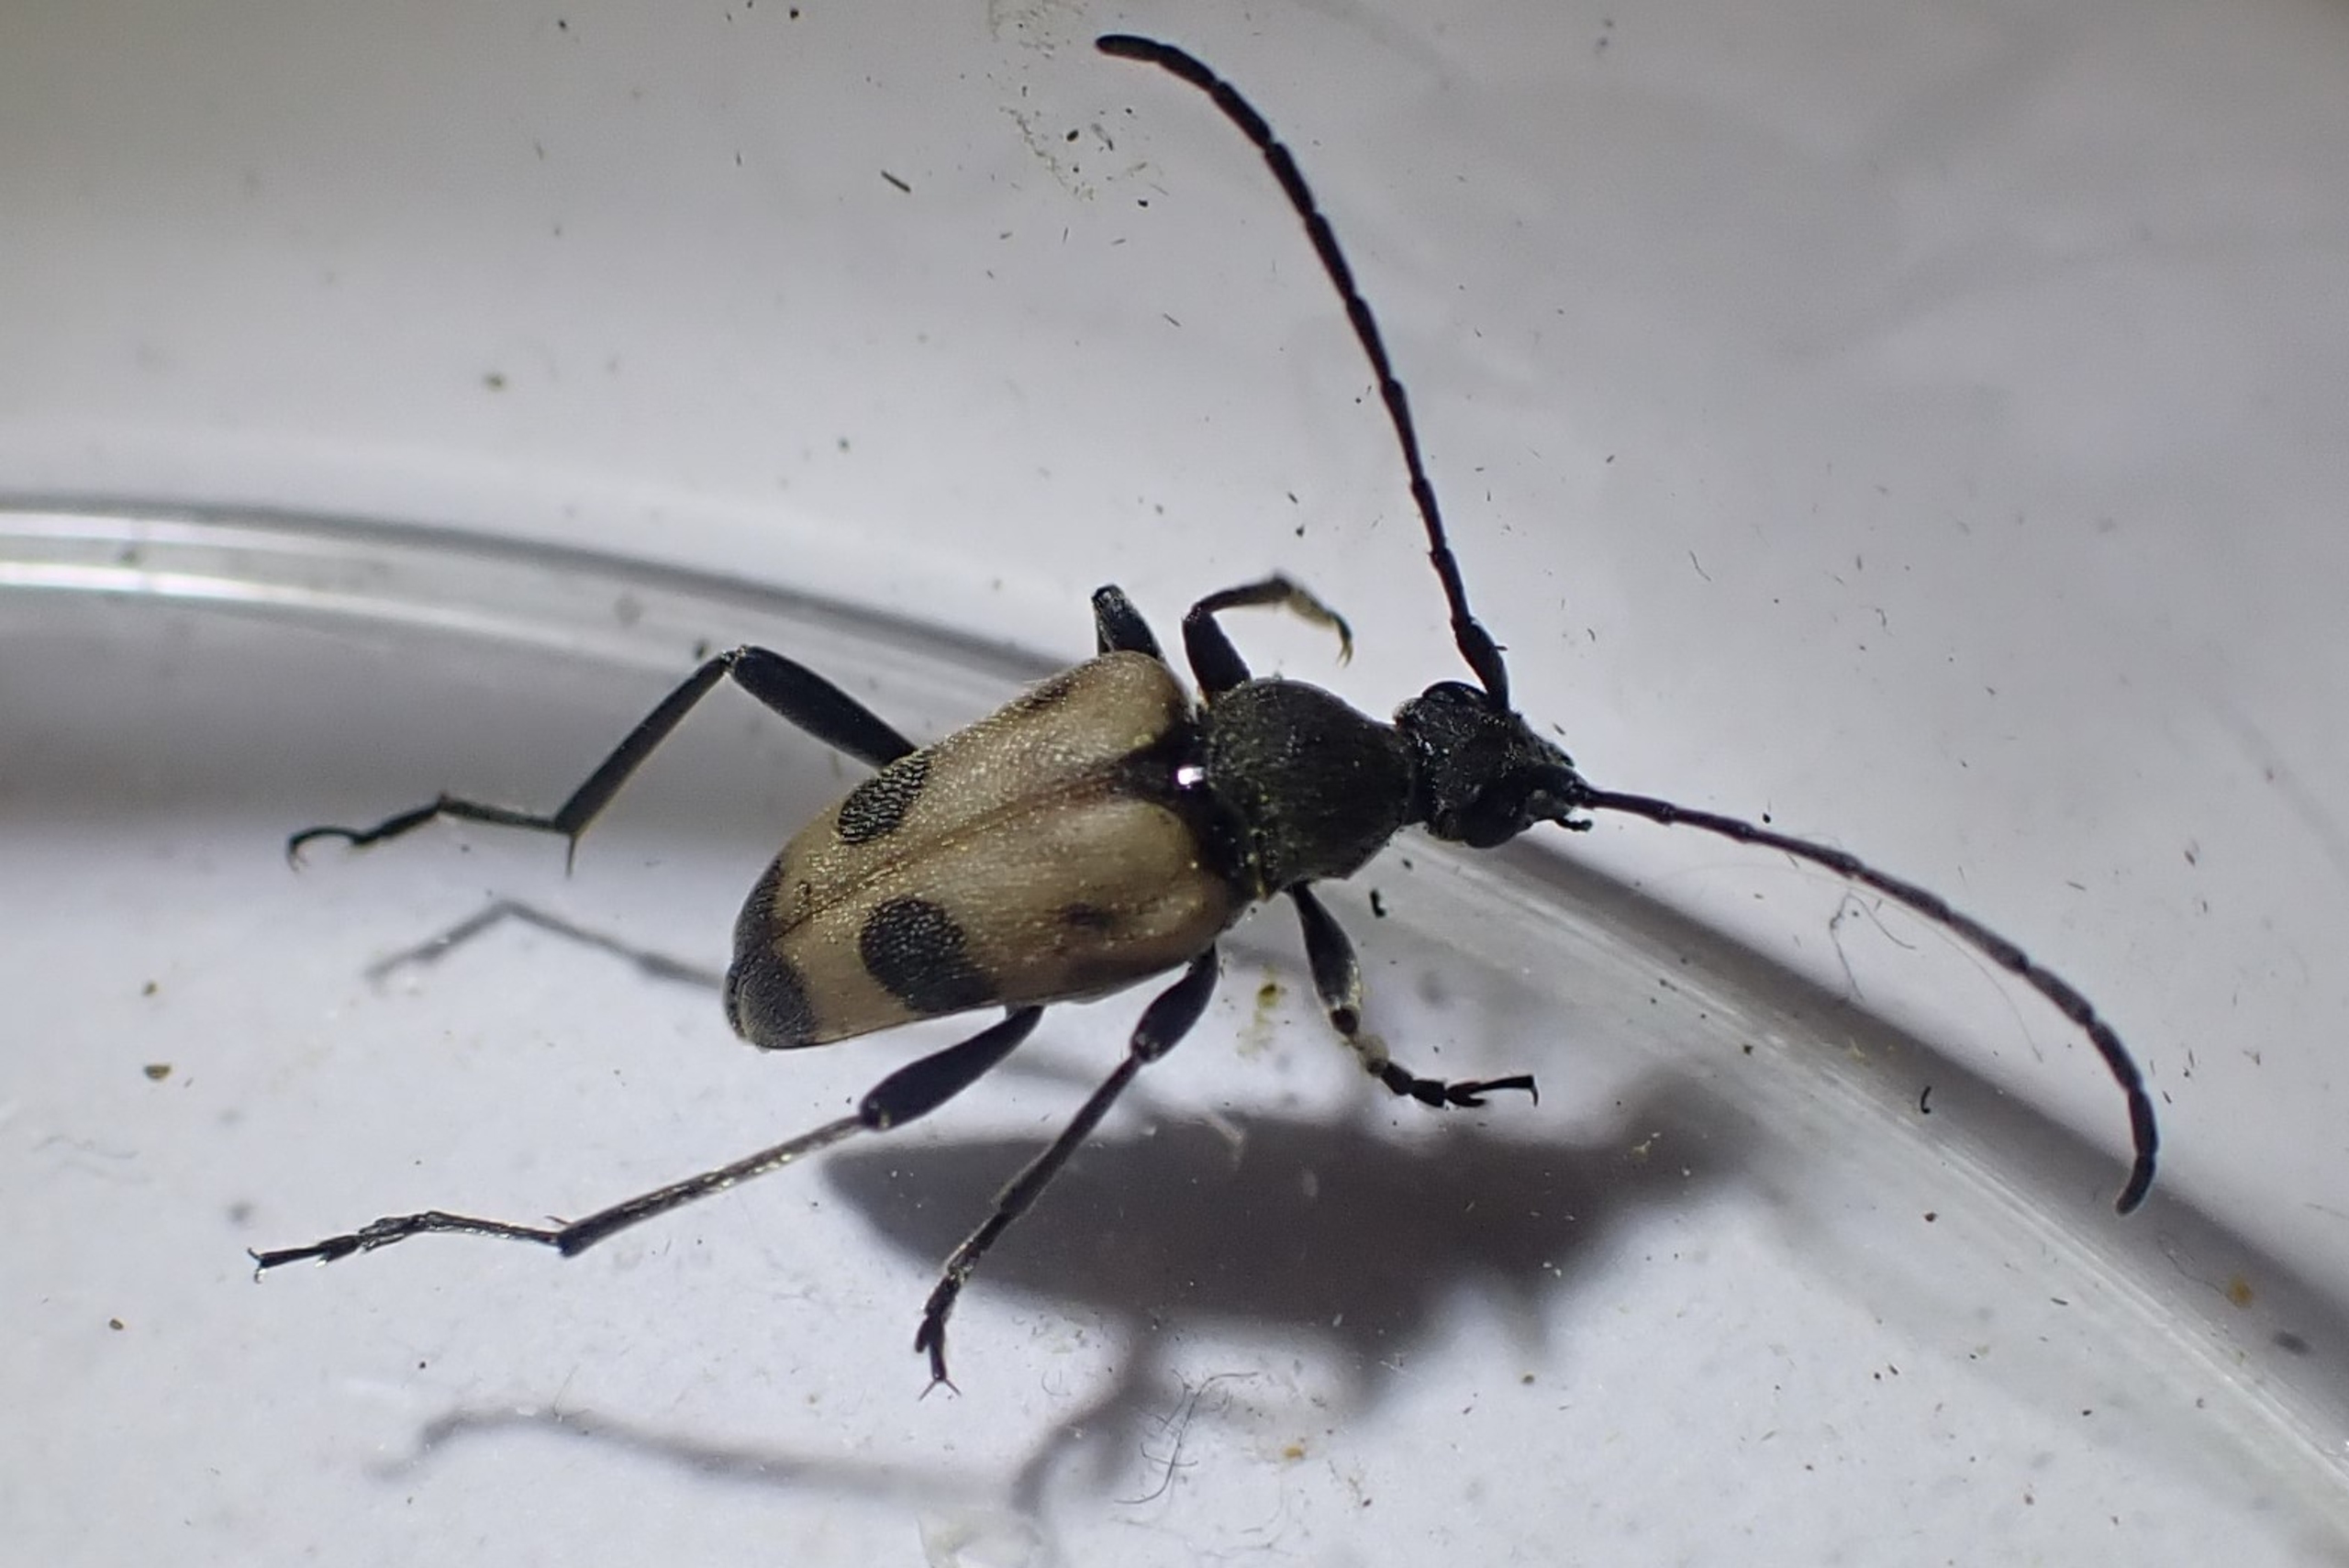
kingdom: Animalia
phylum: Arthropoda
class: Insecta
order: Coleoptera
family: Cerambycidae
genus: Pachytodes
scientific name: Pachytodes cerambyciformis
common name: Jysk blomsterbuk
